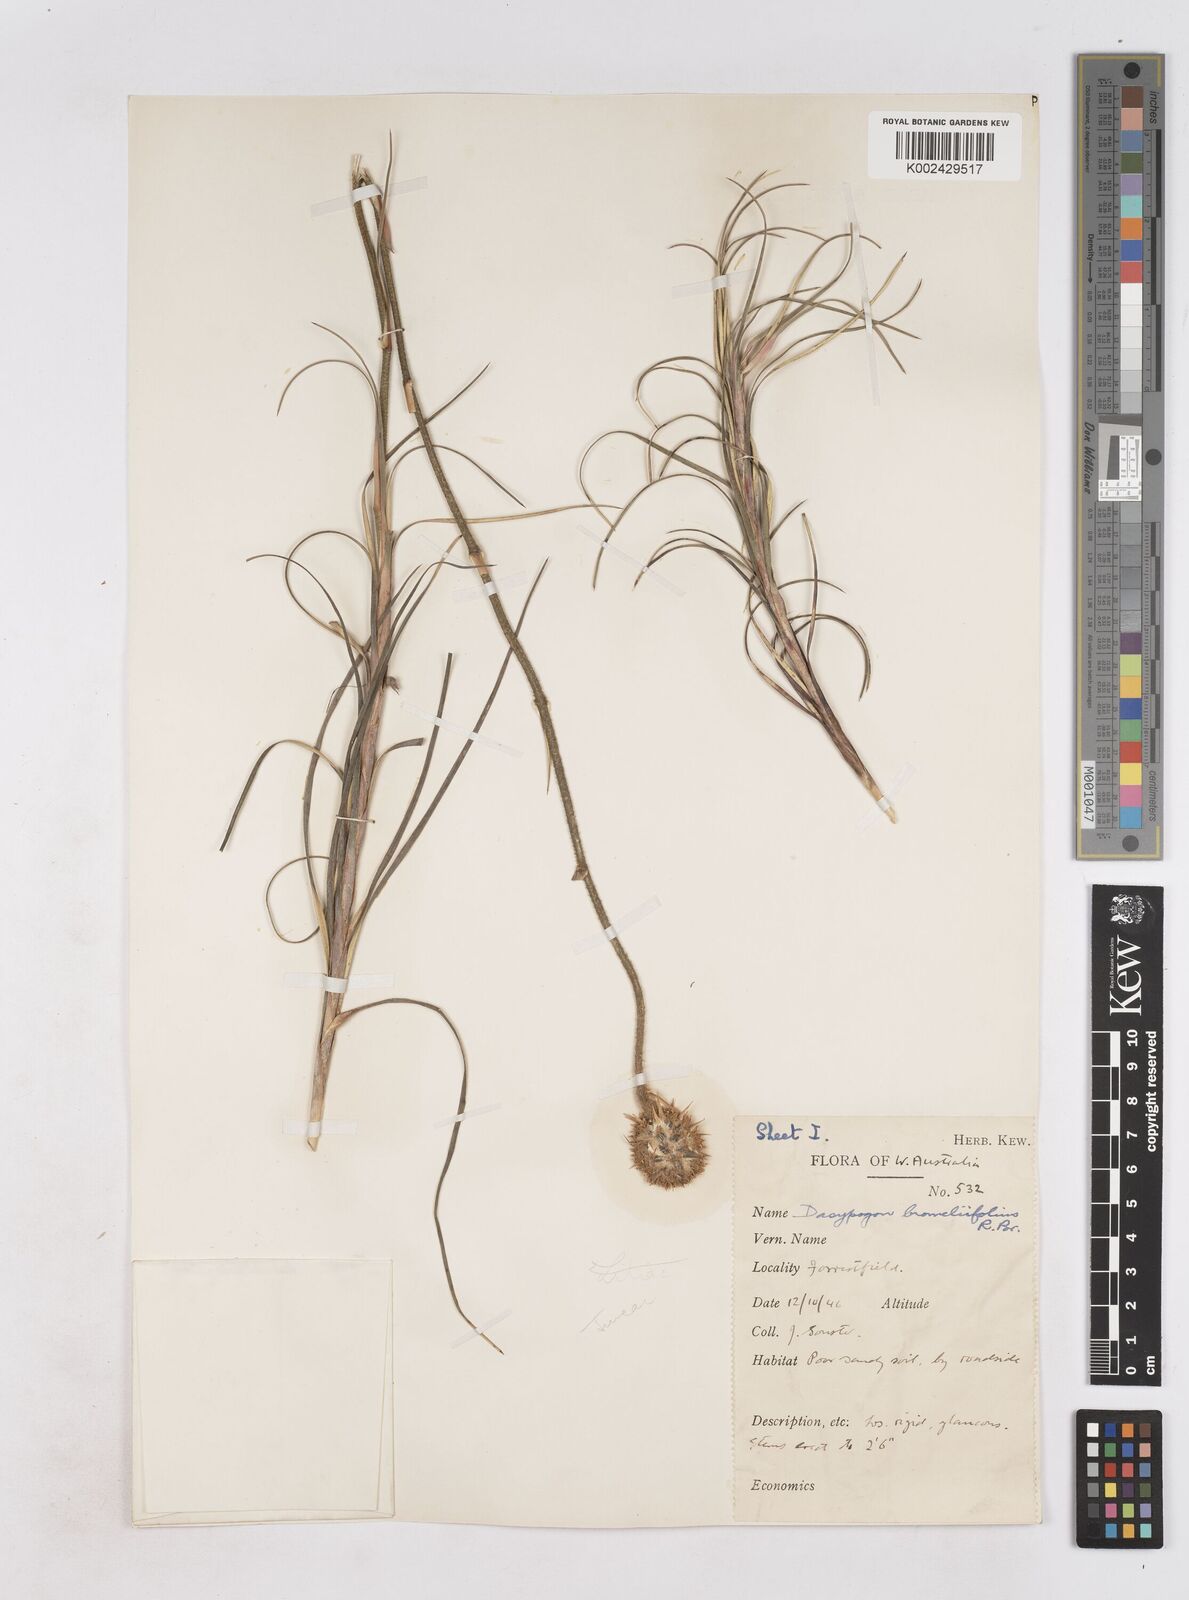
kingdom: Plantae
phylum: Tracheophyta
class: Liliopsida
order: Arecales
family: Dasypogonaceae
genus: Dasypogon
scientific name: Dasypogon bromeliifolius
